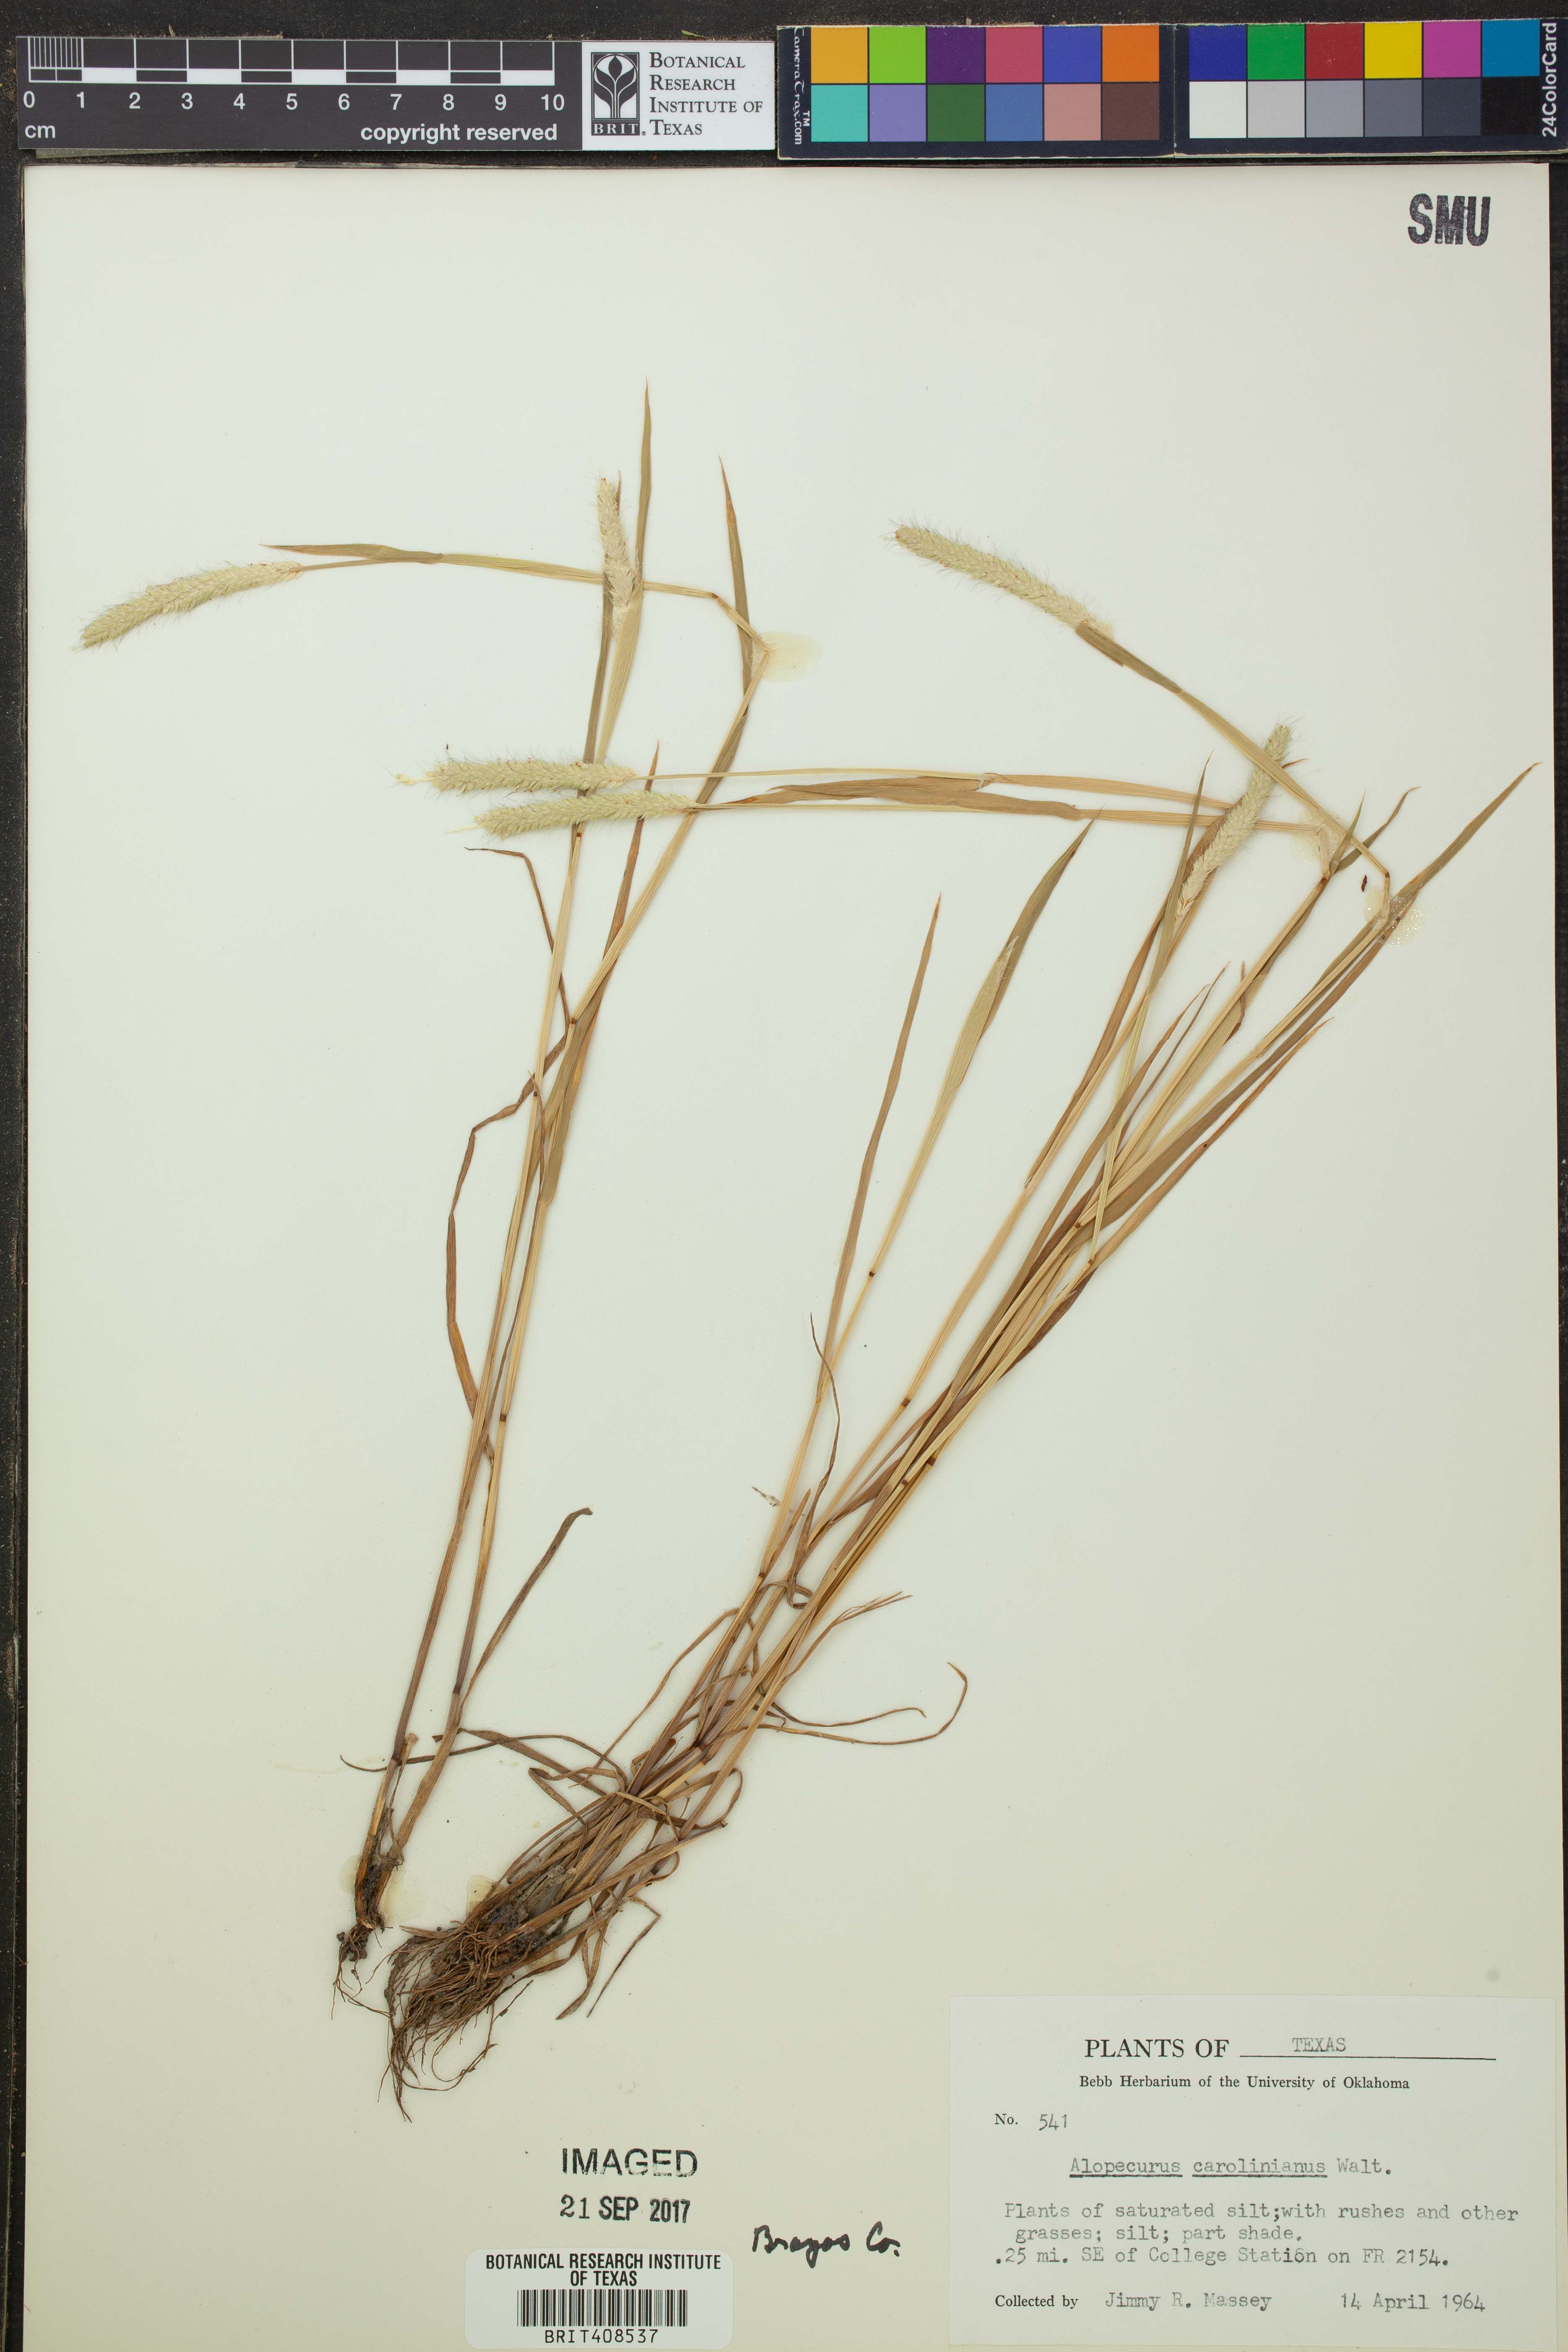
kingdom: Plantae
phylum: Tracheophyta
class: Liliopsida
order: Poales
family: Poaceae
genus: Alopecurus
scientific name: Alopecurus carolinianus
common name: Tufted foxtail
